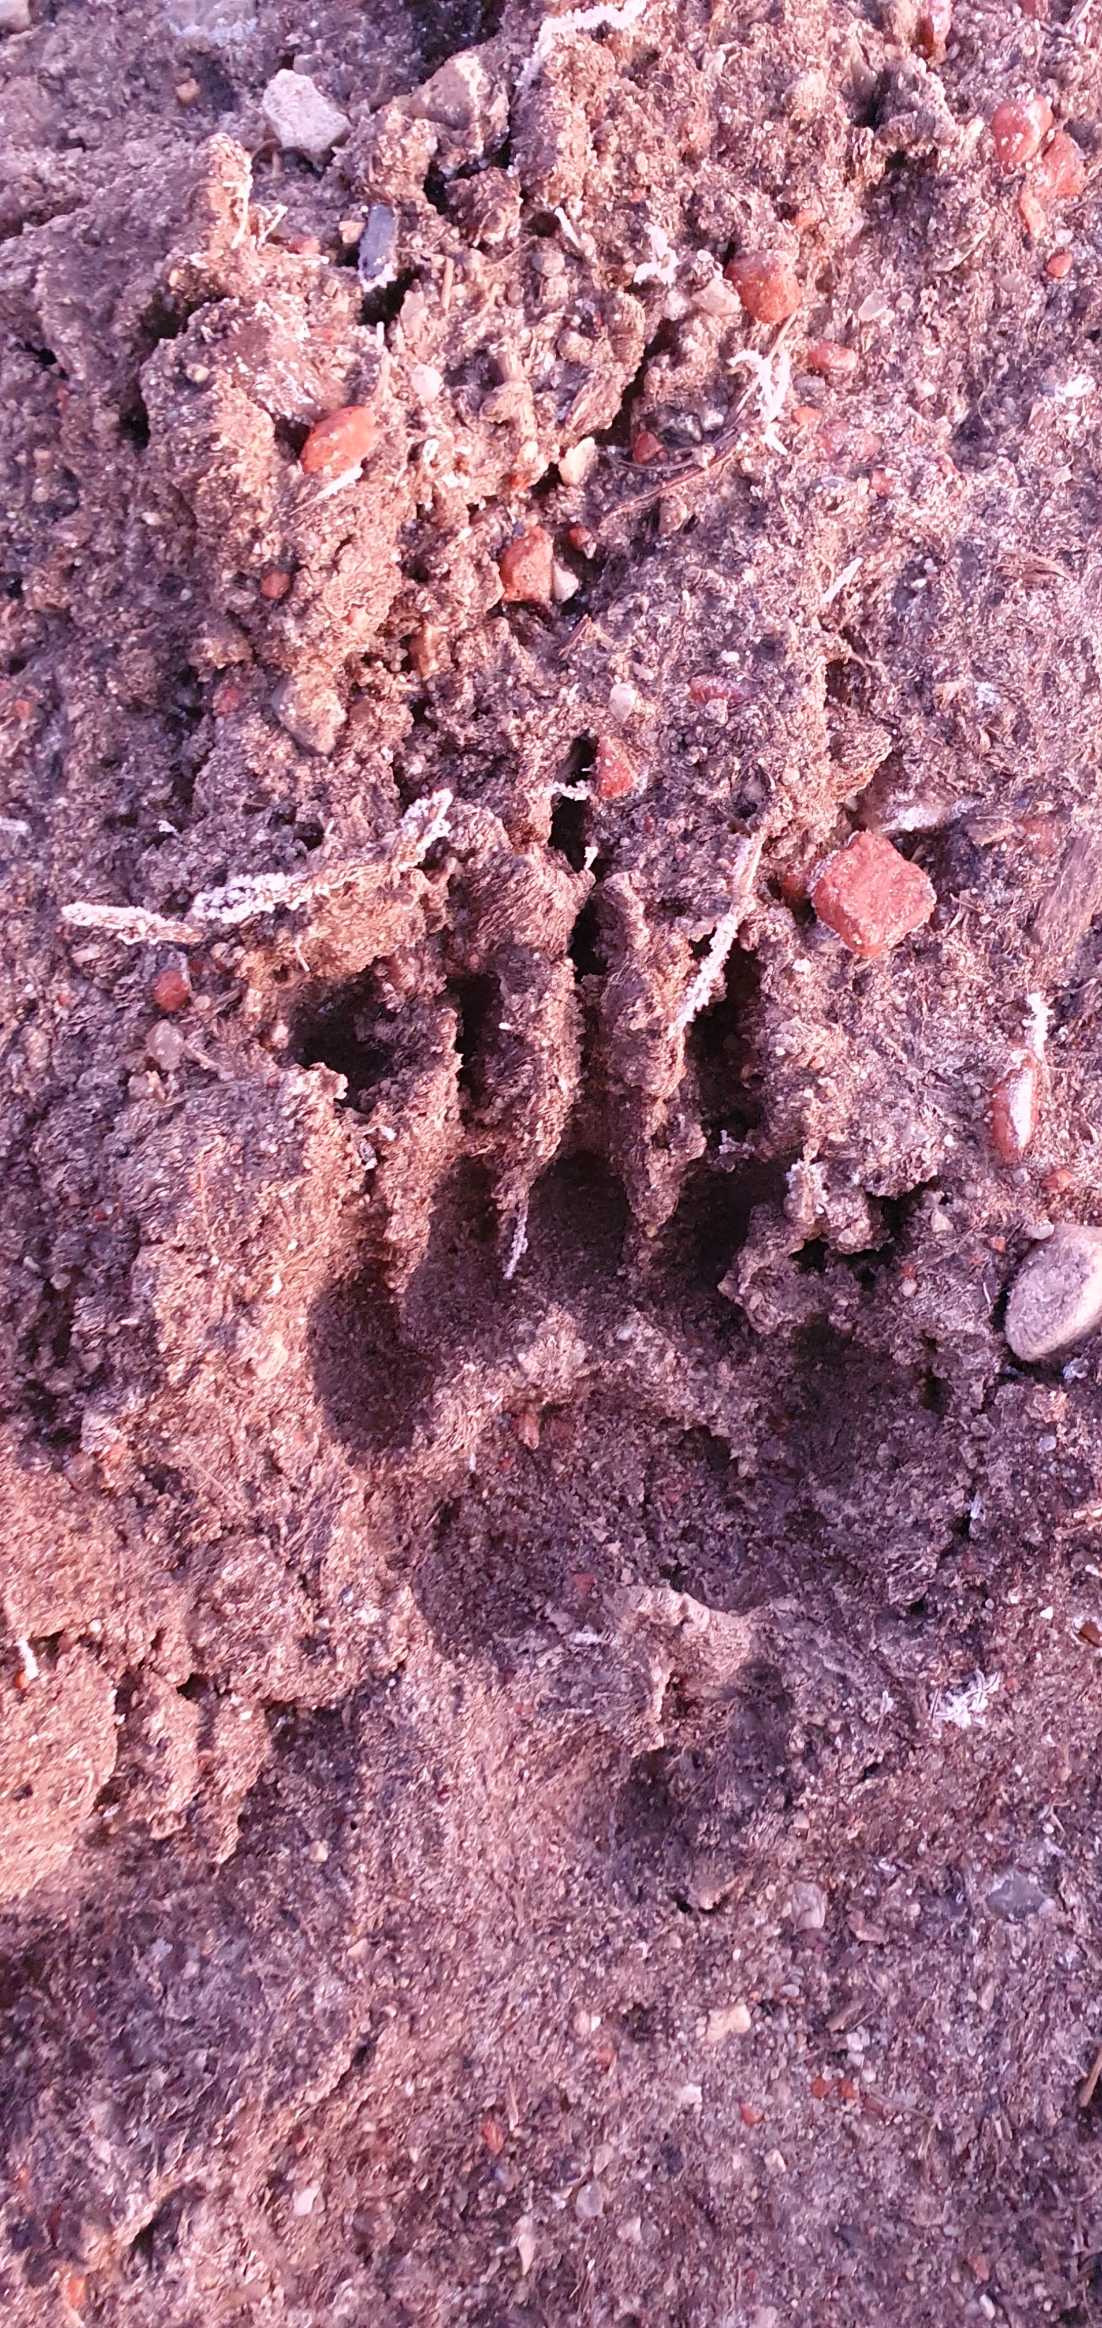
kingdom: Animalia
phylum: Chordata
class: Mammalia
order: Carnivora
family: Mustelidae
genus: Meles
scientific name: Meles meles
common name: Grævling
